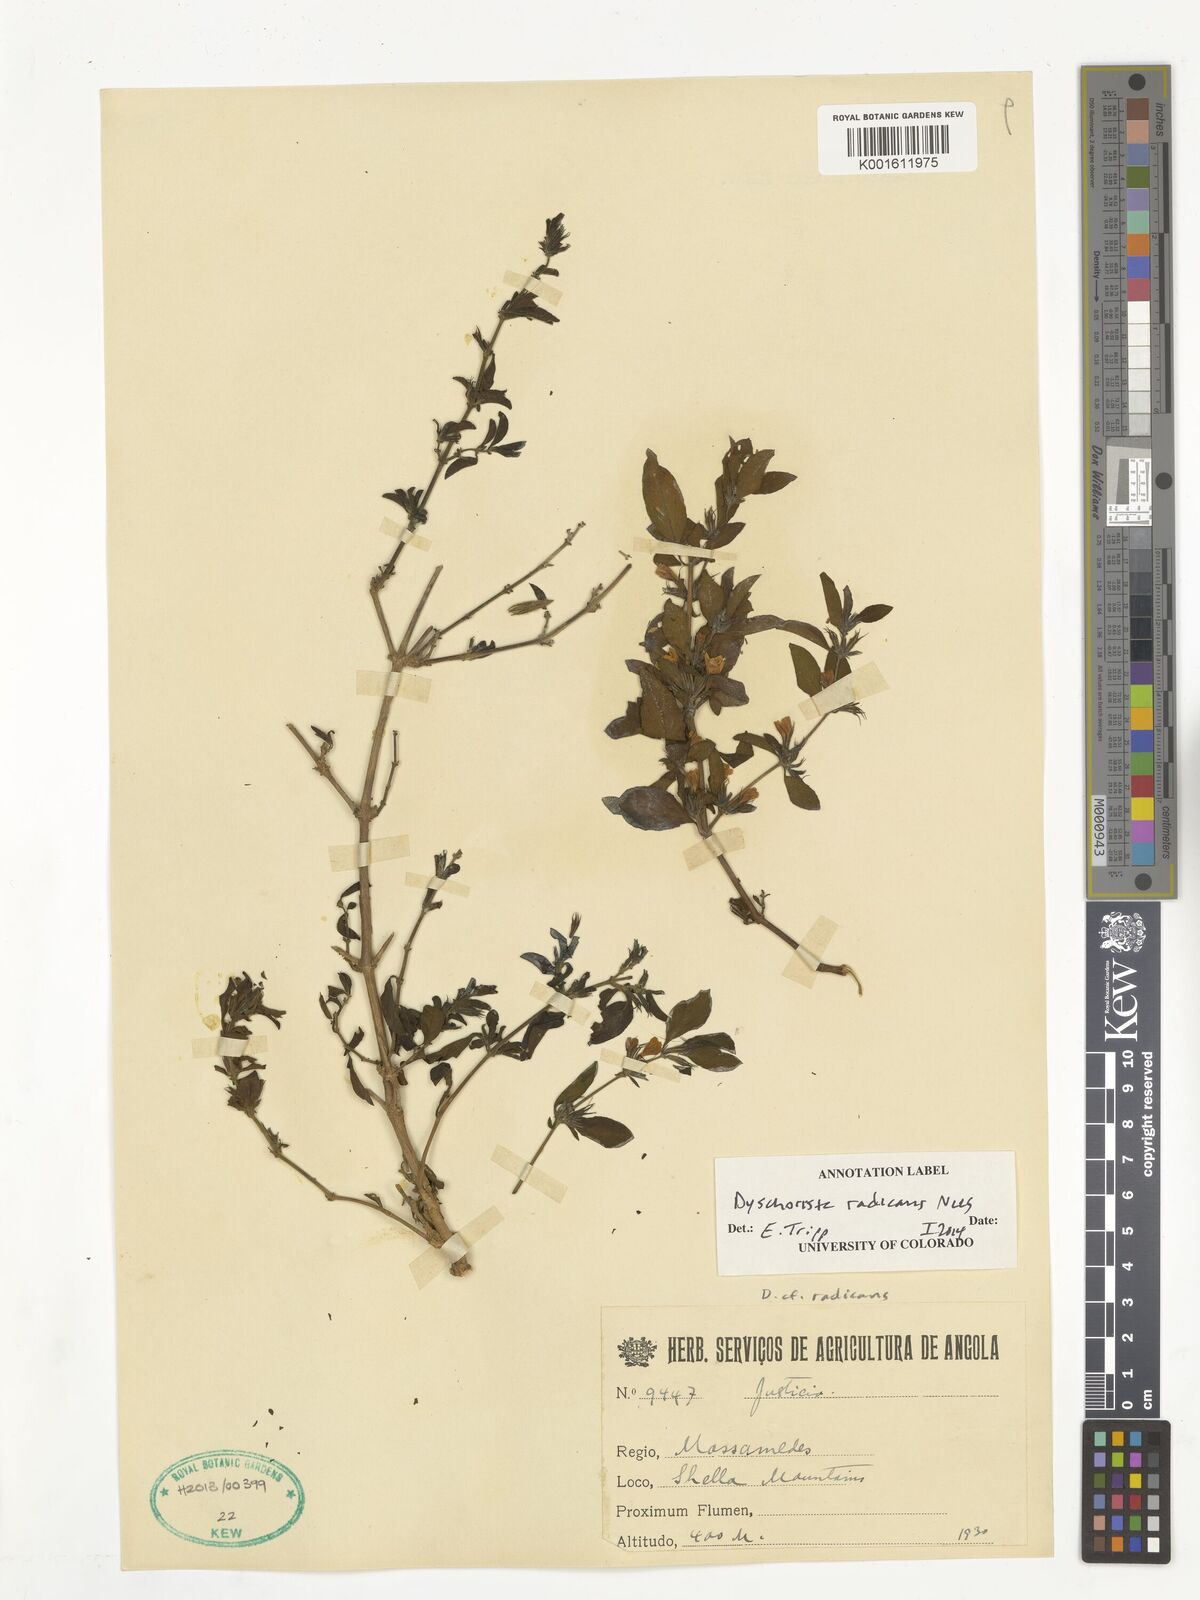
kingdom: Plantae
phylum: Tracheophyta
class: Magnoliopsida
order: Lamiales
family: Acanthaceae
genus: Dyschoriste
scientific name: Dyschoriste radicans
